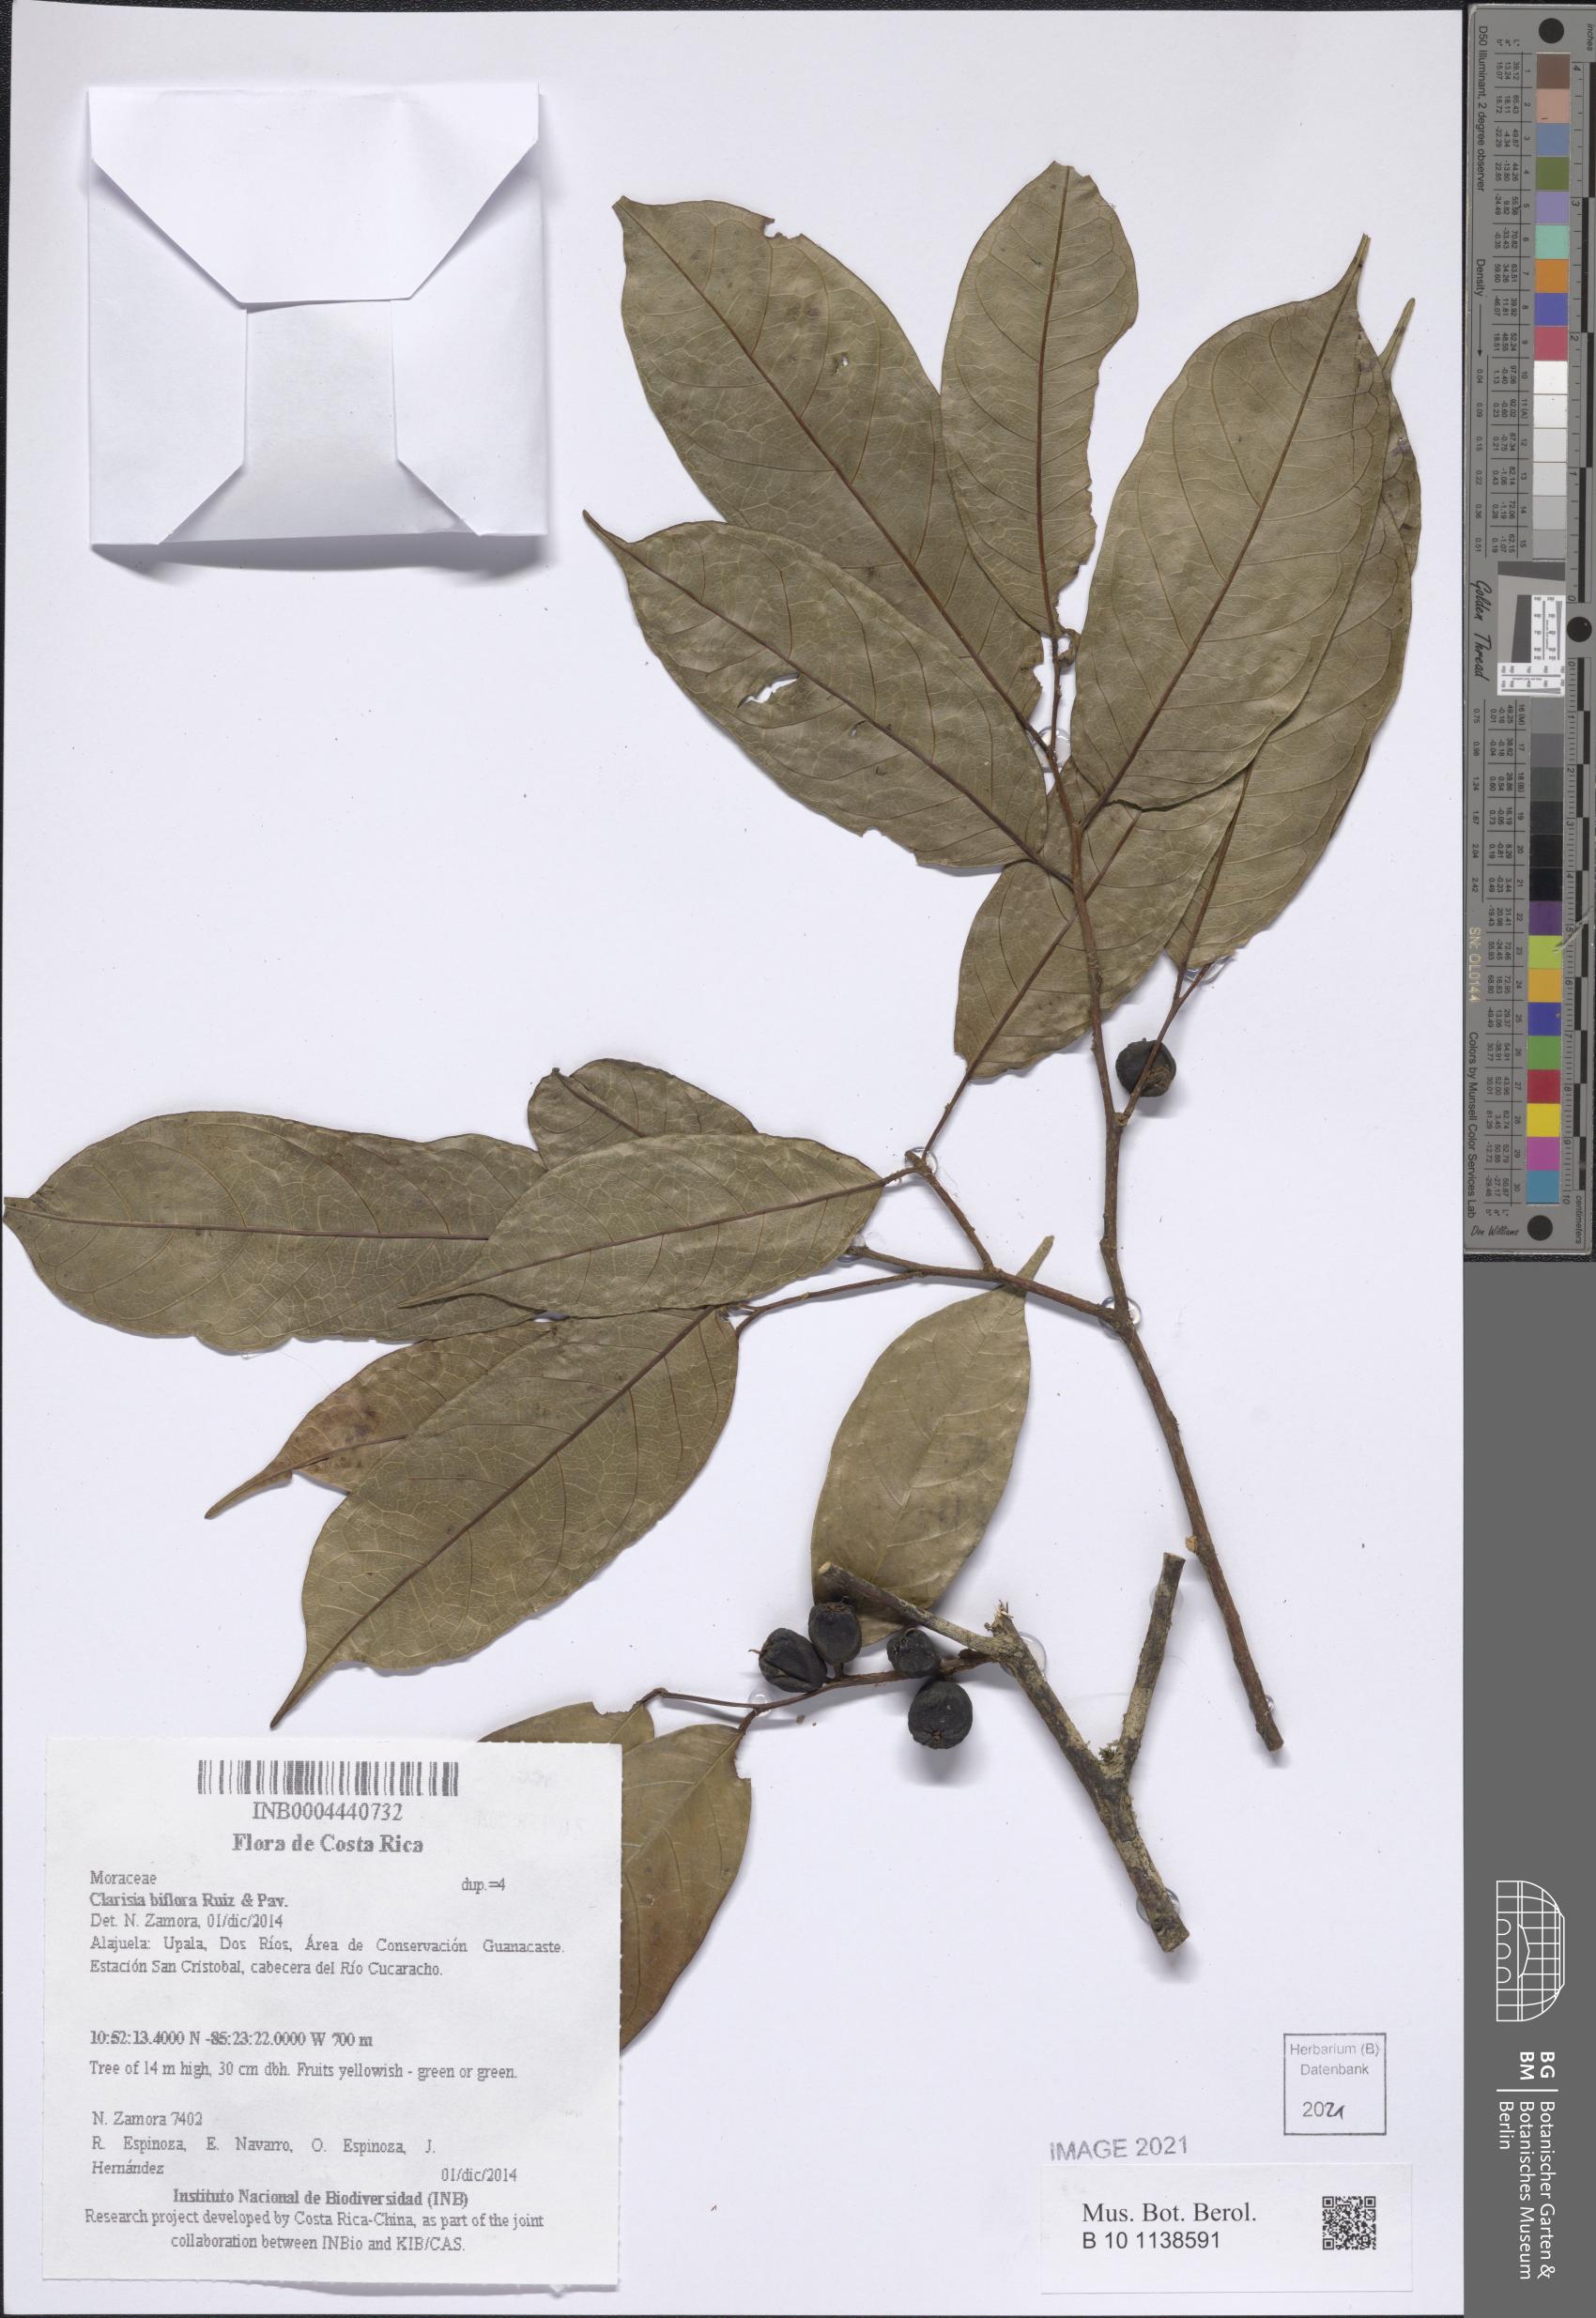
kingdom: Plantae
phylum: Tracheophyta
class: Magnoliopsida
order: Rosales
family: Moraceae
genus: Clarisia
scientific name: Clarisia biflora
